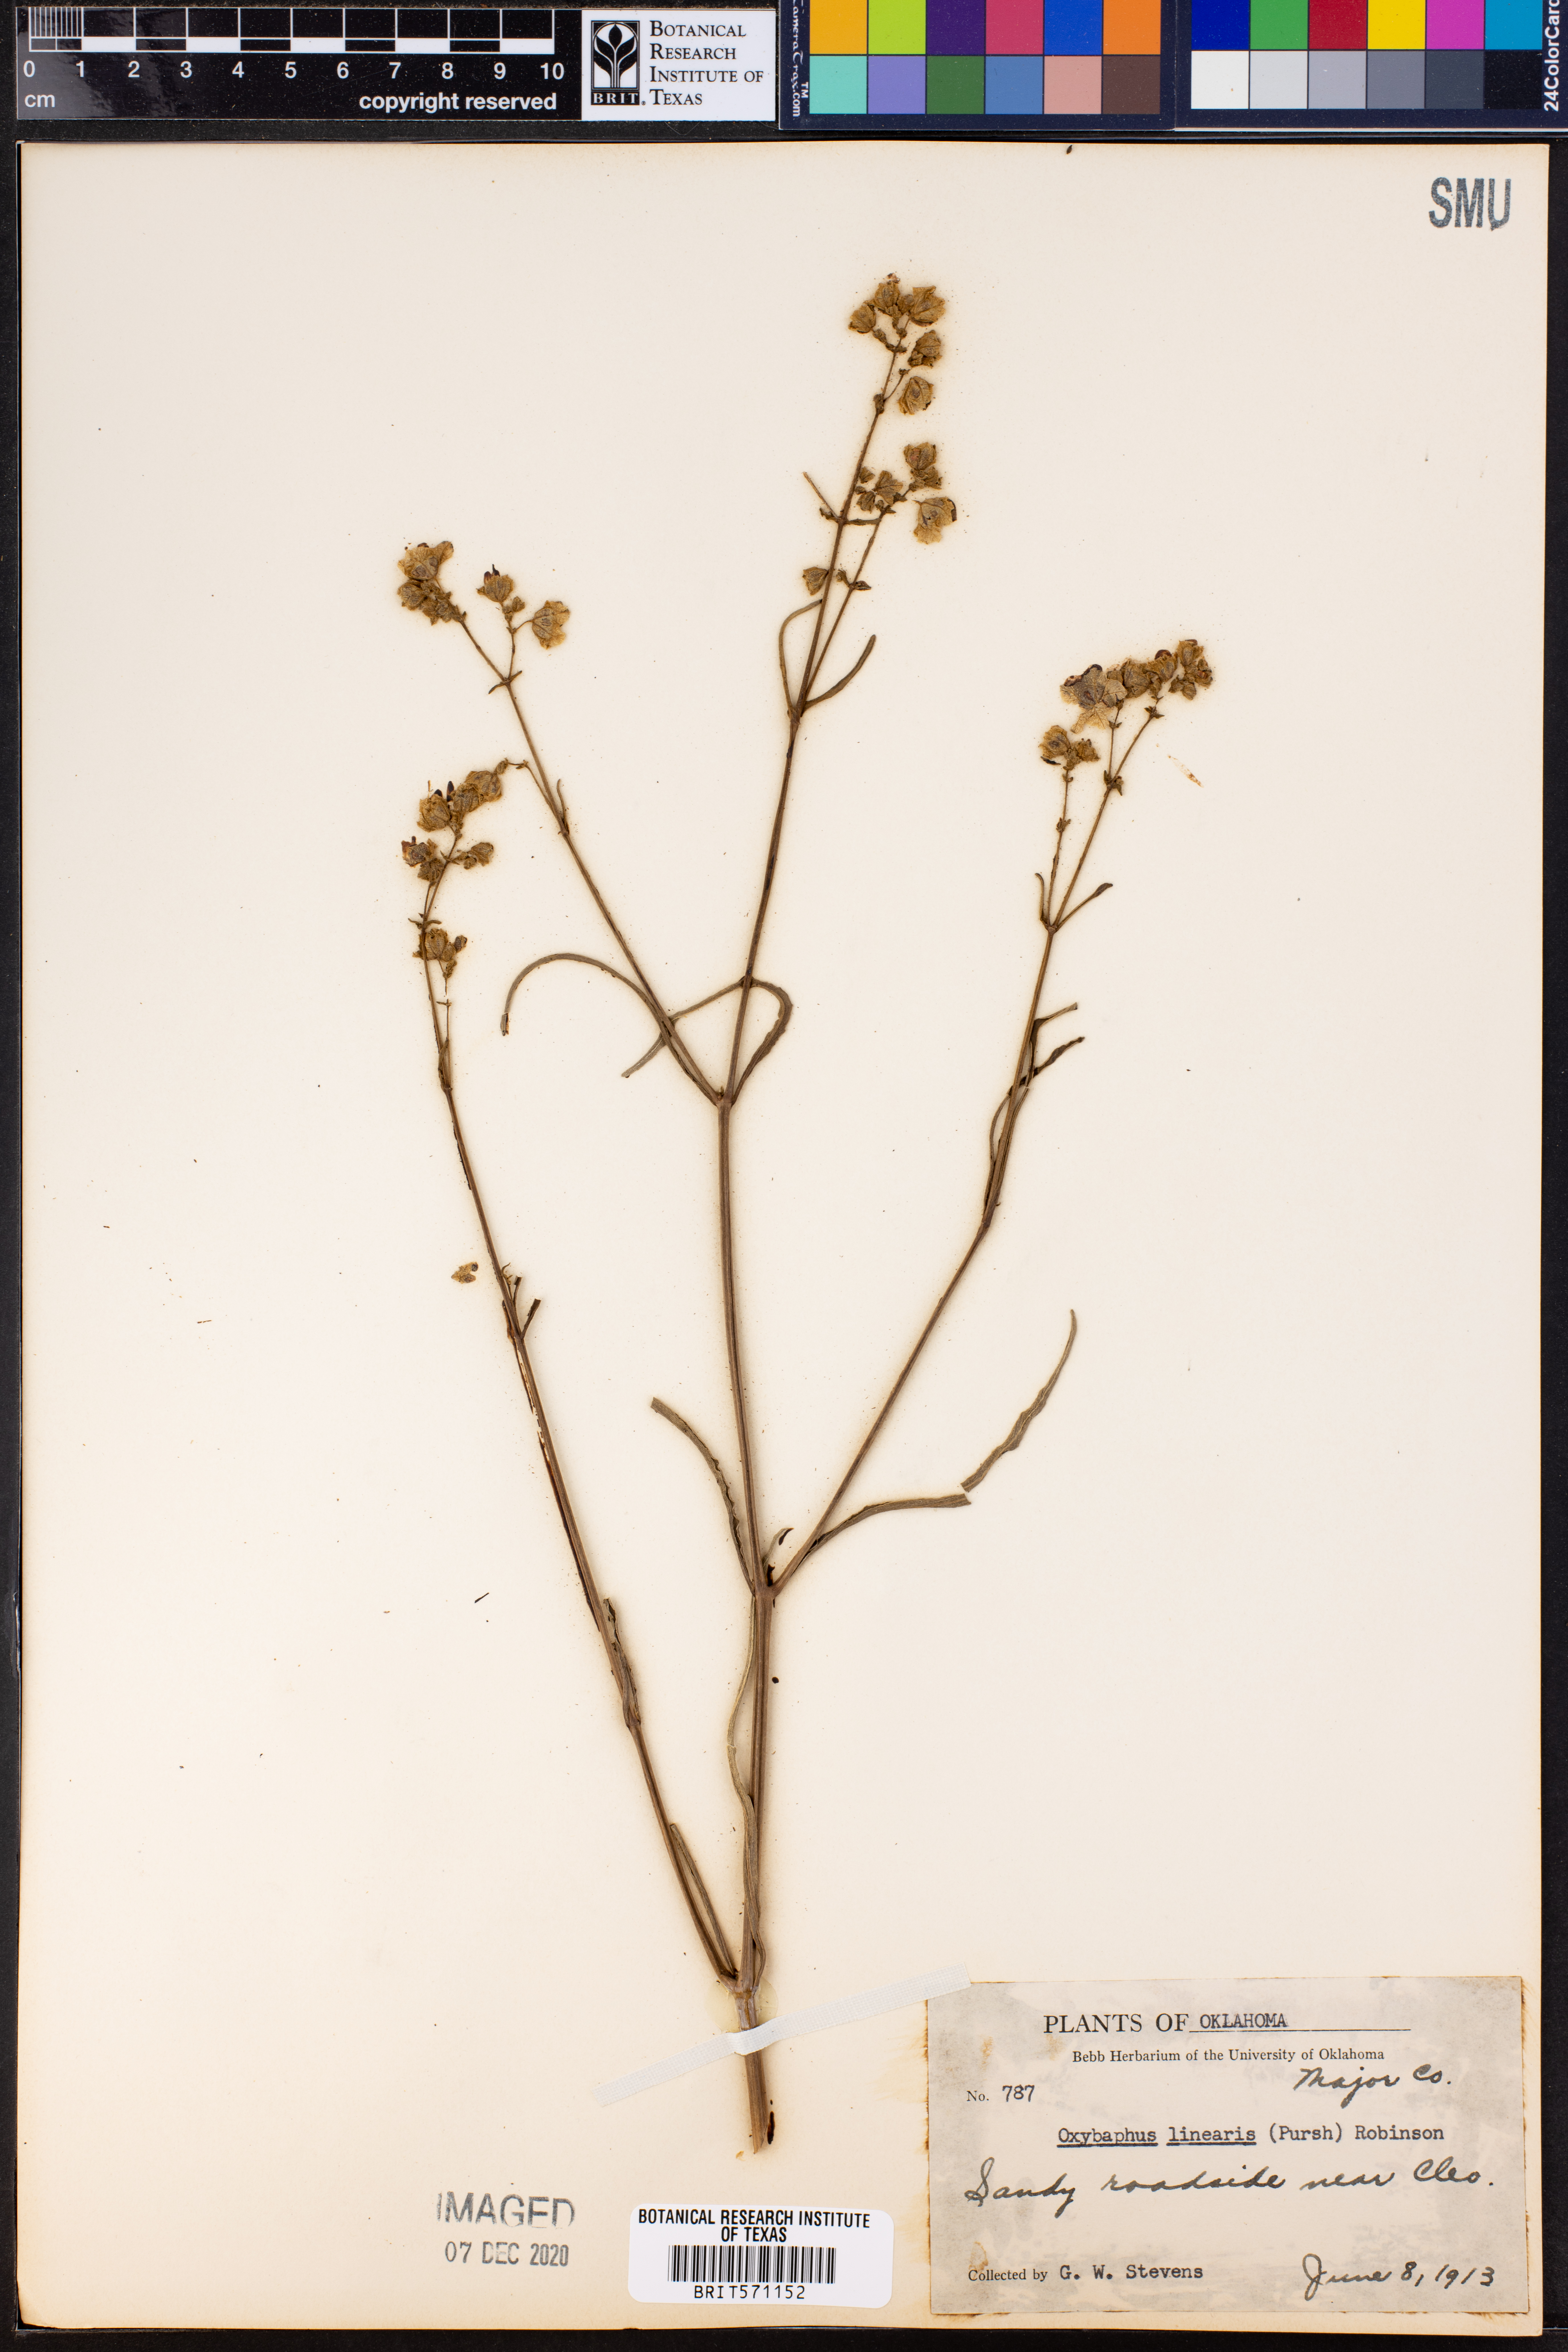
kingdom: Plantae
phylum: Tracheophyta
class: Magnoliopsida
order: Caryophyllales
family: Nyctaginaceae
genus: Mirabilis
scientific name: Mirabilis linearis
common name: Linear-leaved four-o'clock
